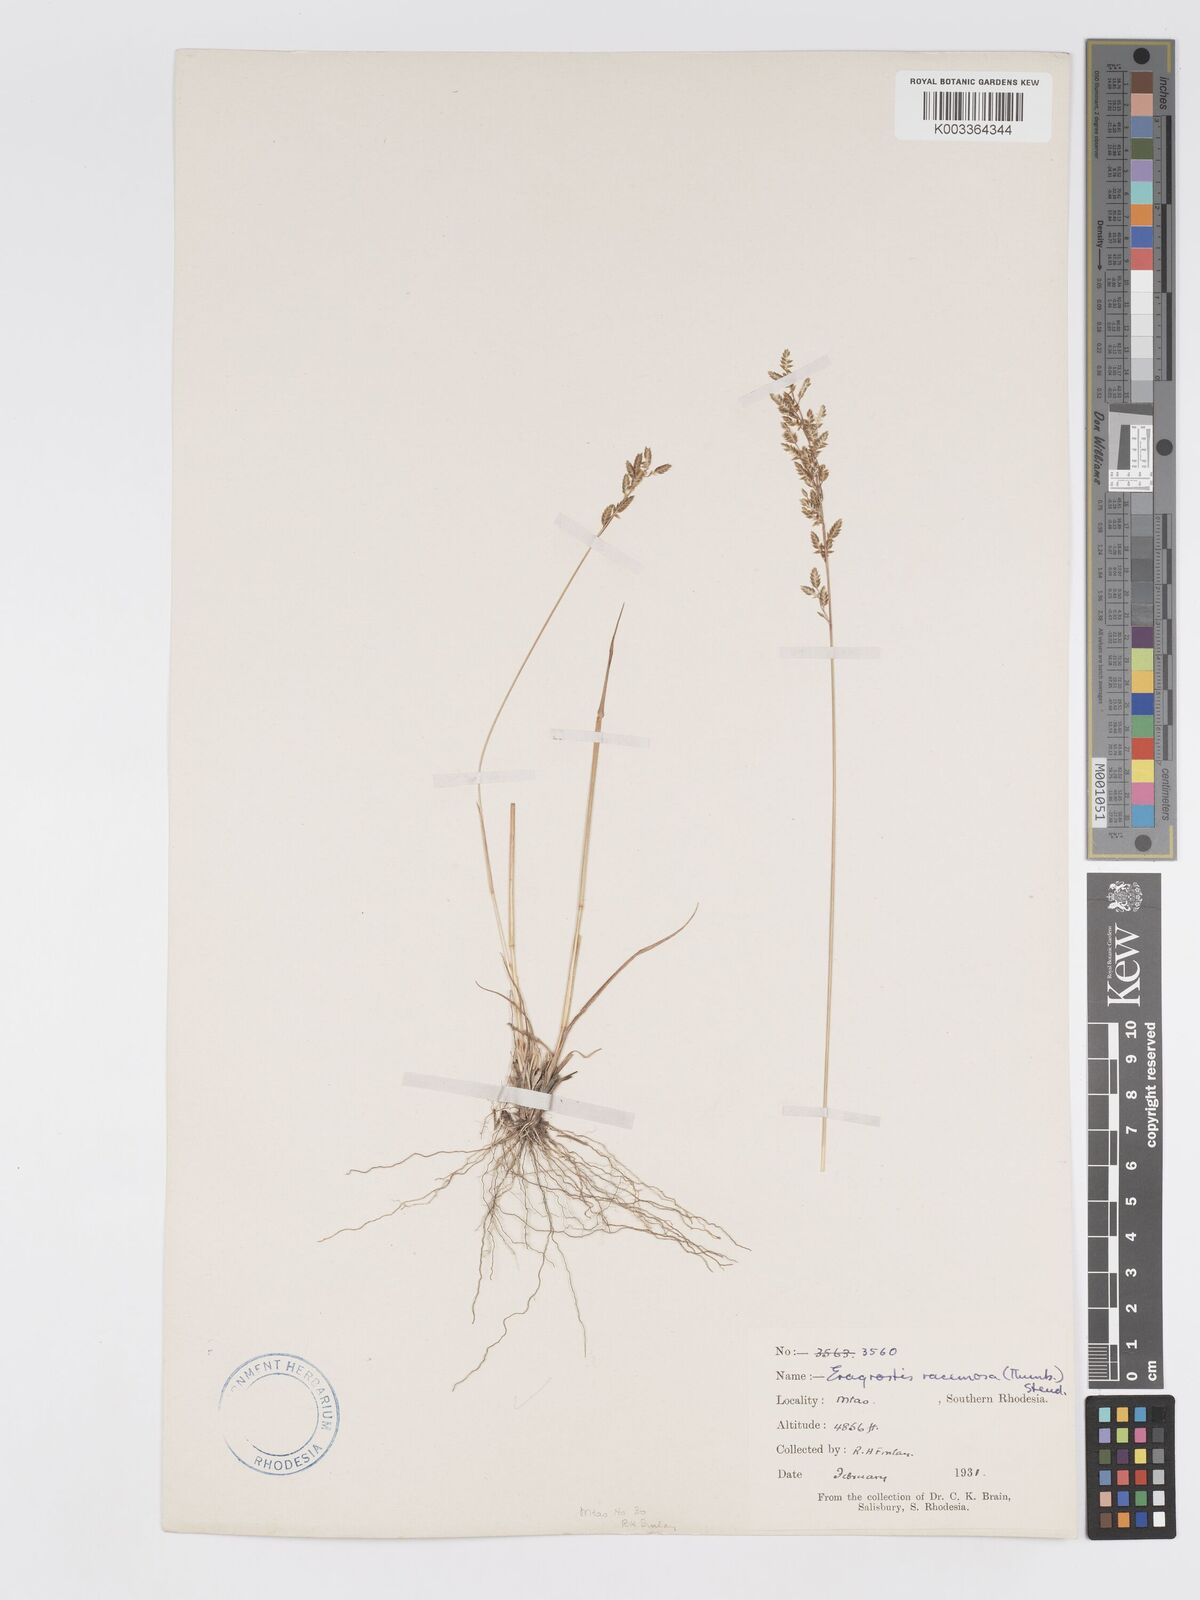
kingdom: Plantae
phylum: Tracheophyta
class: Liliopsida
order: Poales
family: Poaceae
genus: Eragrostis
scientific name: Eragrostis racemosa
